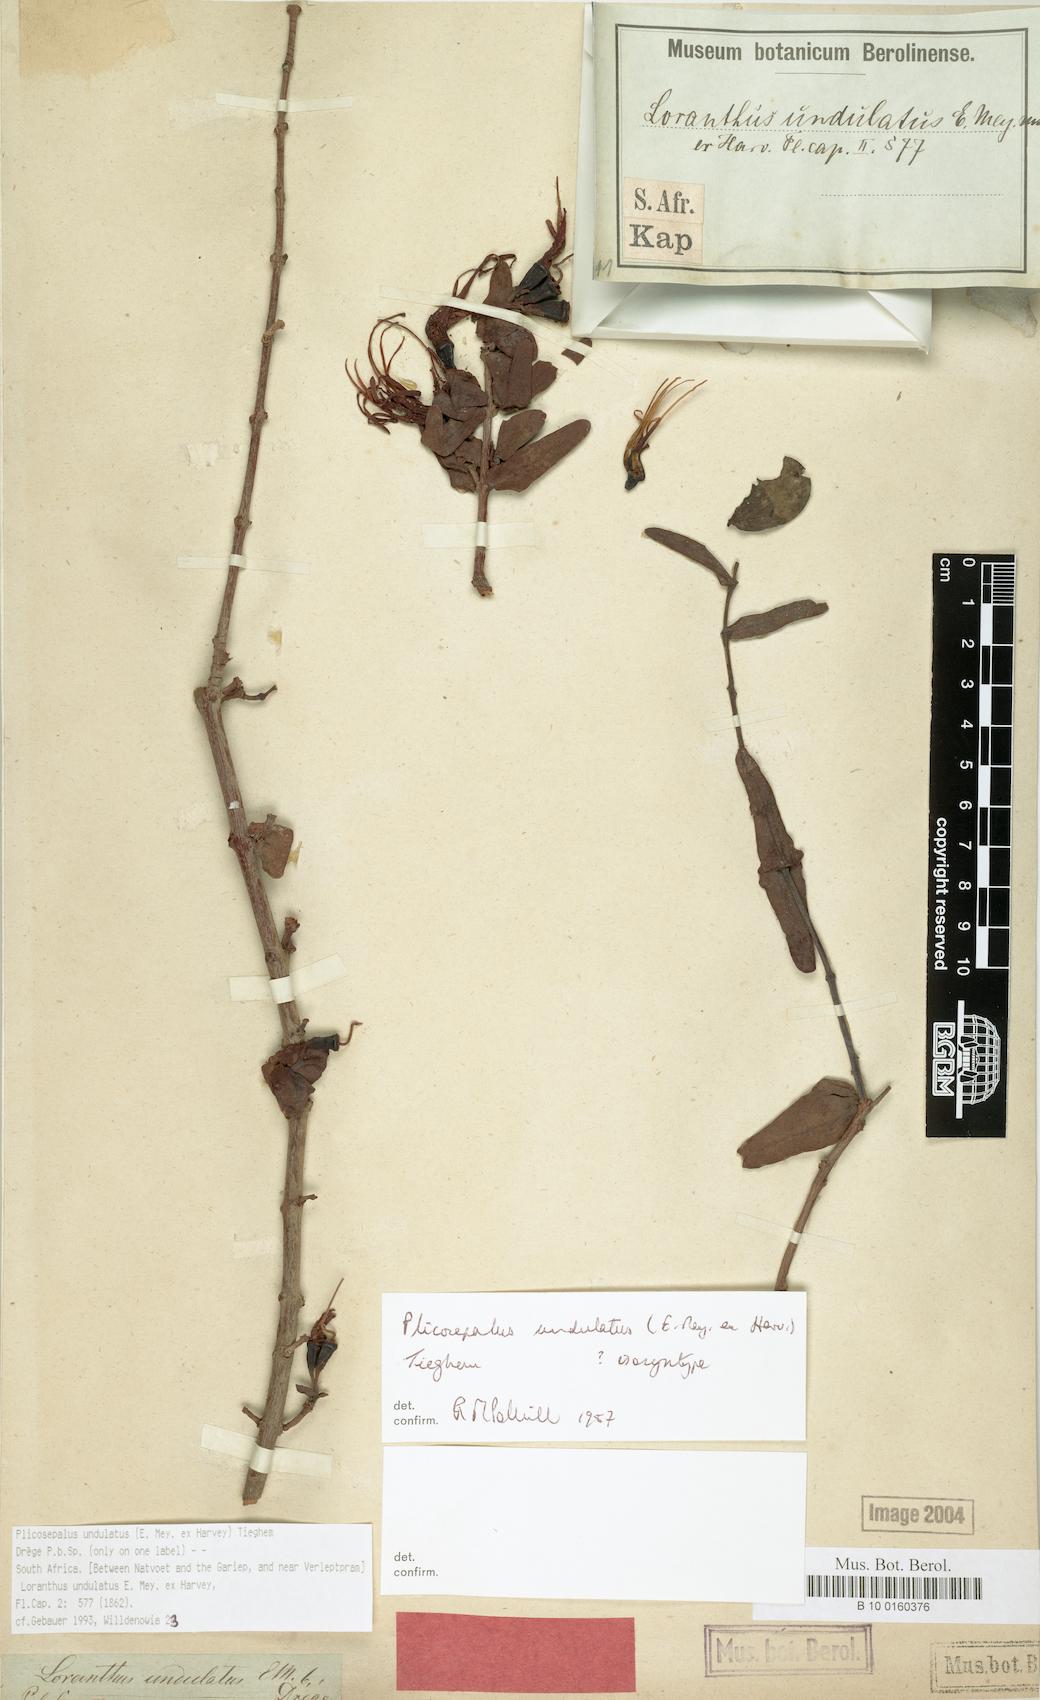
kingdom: Plantae
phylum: Tracheophyta
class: Magnoliopsida
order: Santalales
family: Loranthaceae
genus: Plicosepalus
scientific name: Plicosepalus undulatus
